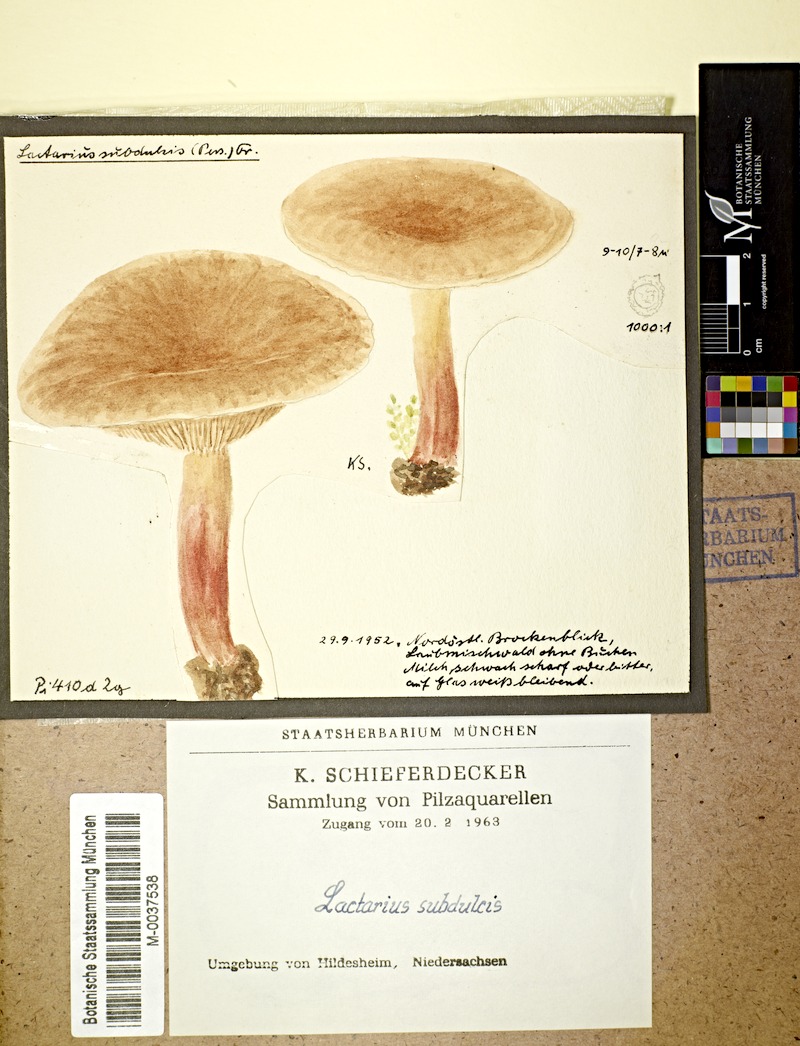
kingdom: Fungi
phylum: Basidiomycota
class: Agaricomycetes
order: Russulales
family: Russulaceae
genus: Lactarius
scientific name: Lactarius
